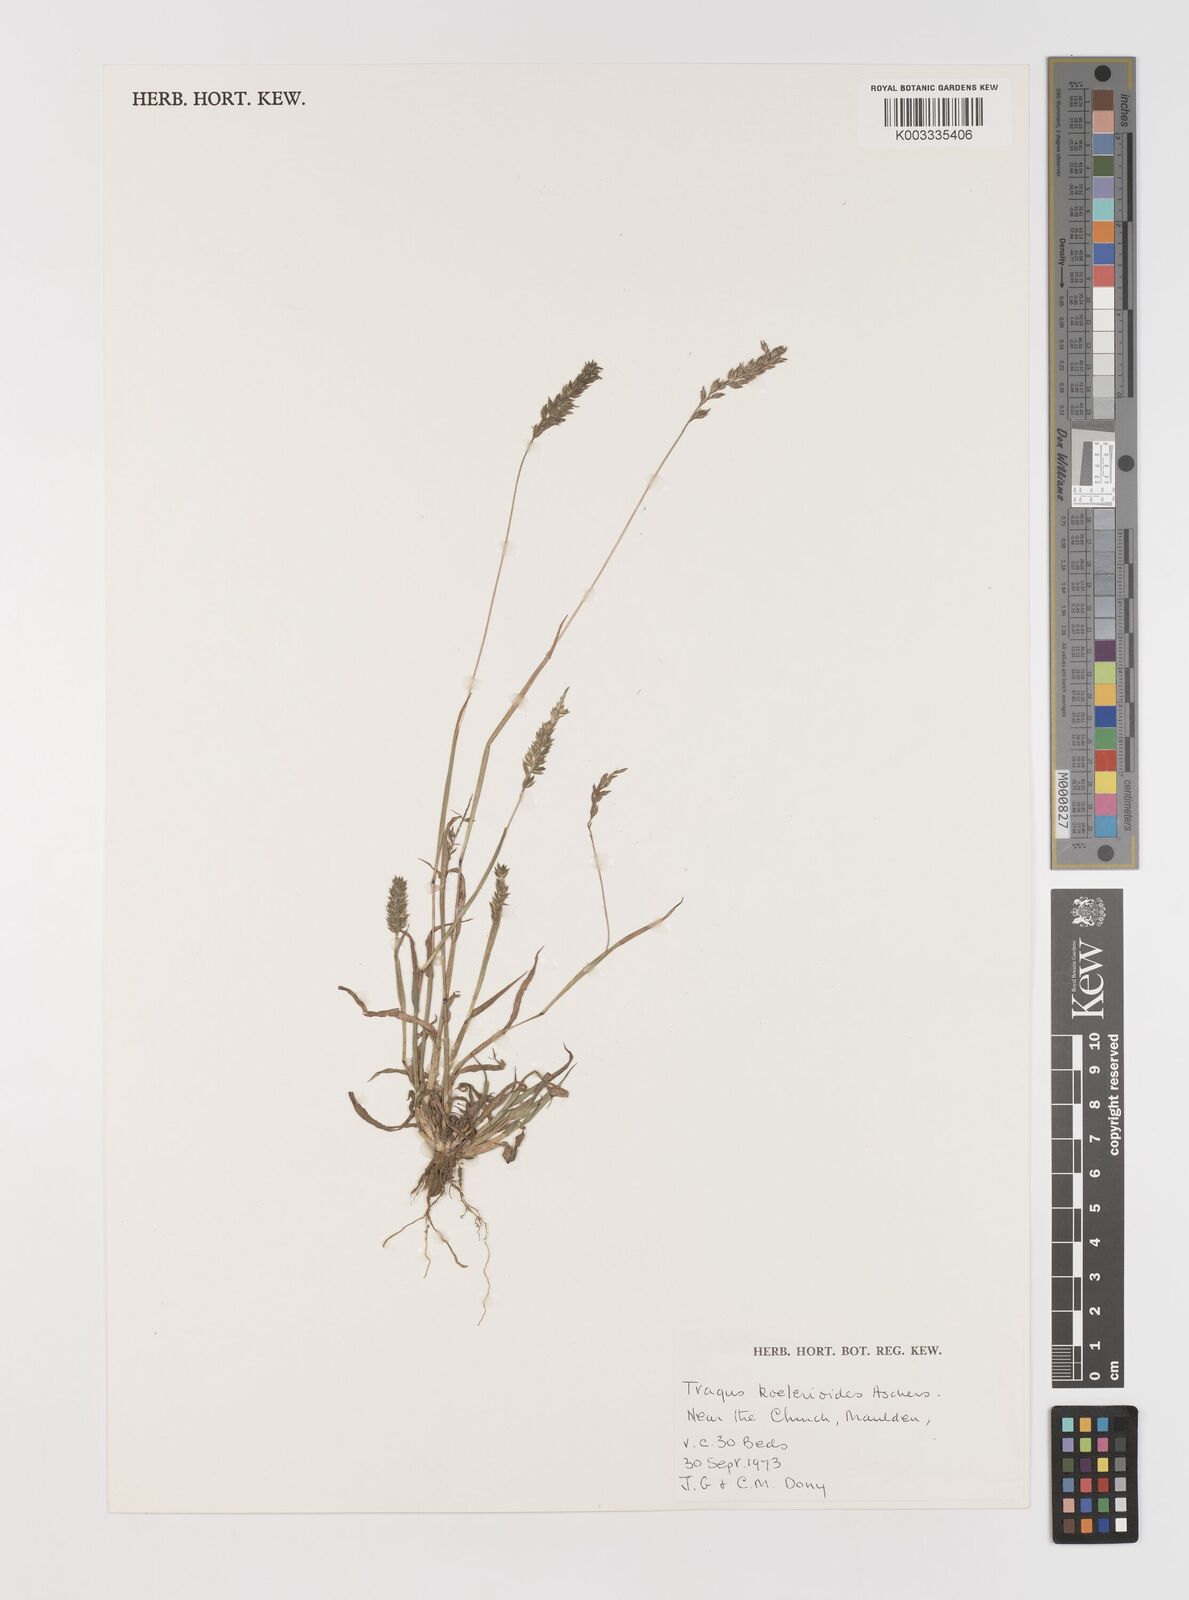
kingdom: Plantae
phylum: Tracheophyta
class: Liliopsida
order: Poales
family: Poaceae
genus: Tragus
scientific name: Tragus koelerioides
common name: Creeping carrot-seed grass
